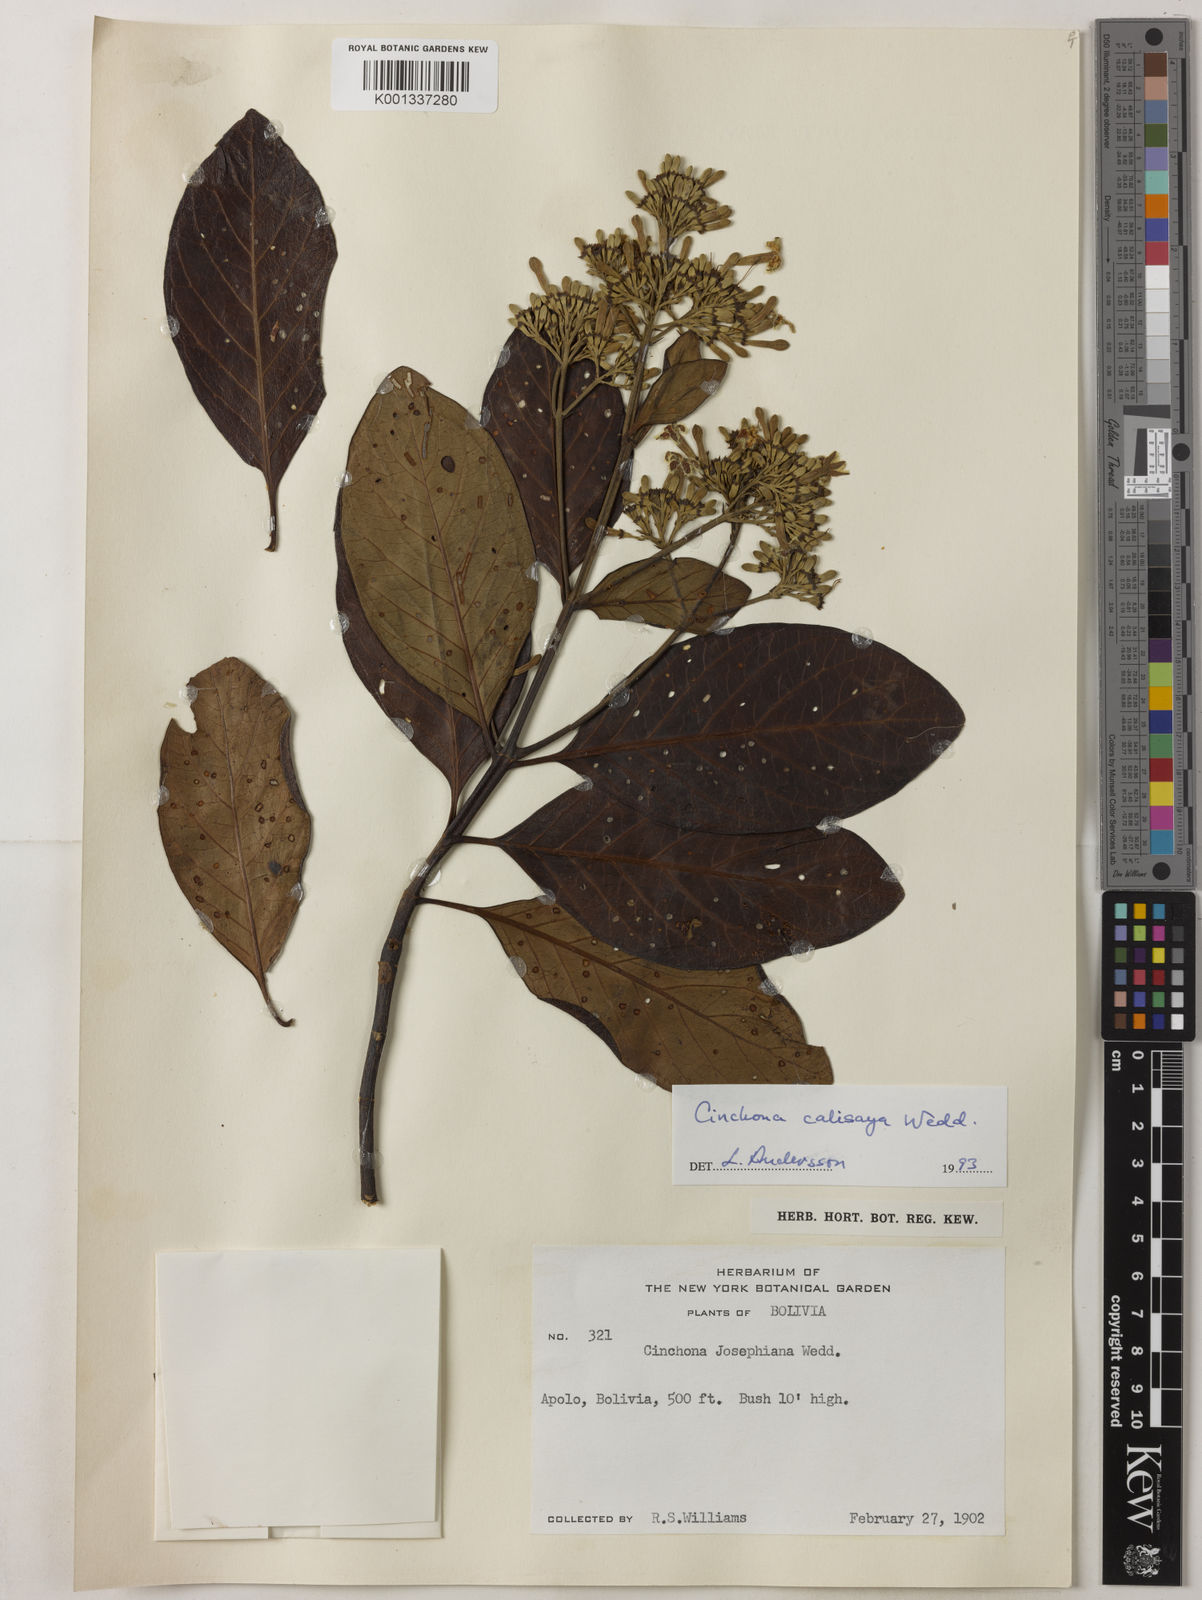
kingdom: Plantae
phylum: Tracheophyta
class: Magnoliopsida
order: Gentianales
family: Rubiaceae
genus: Cinchona
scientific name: Cinchona calisaya
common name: Ledgerbark
